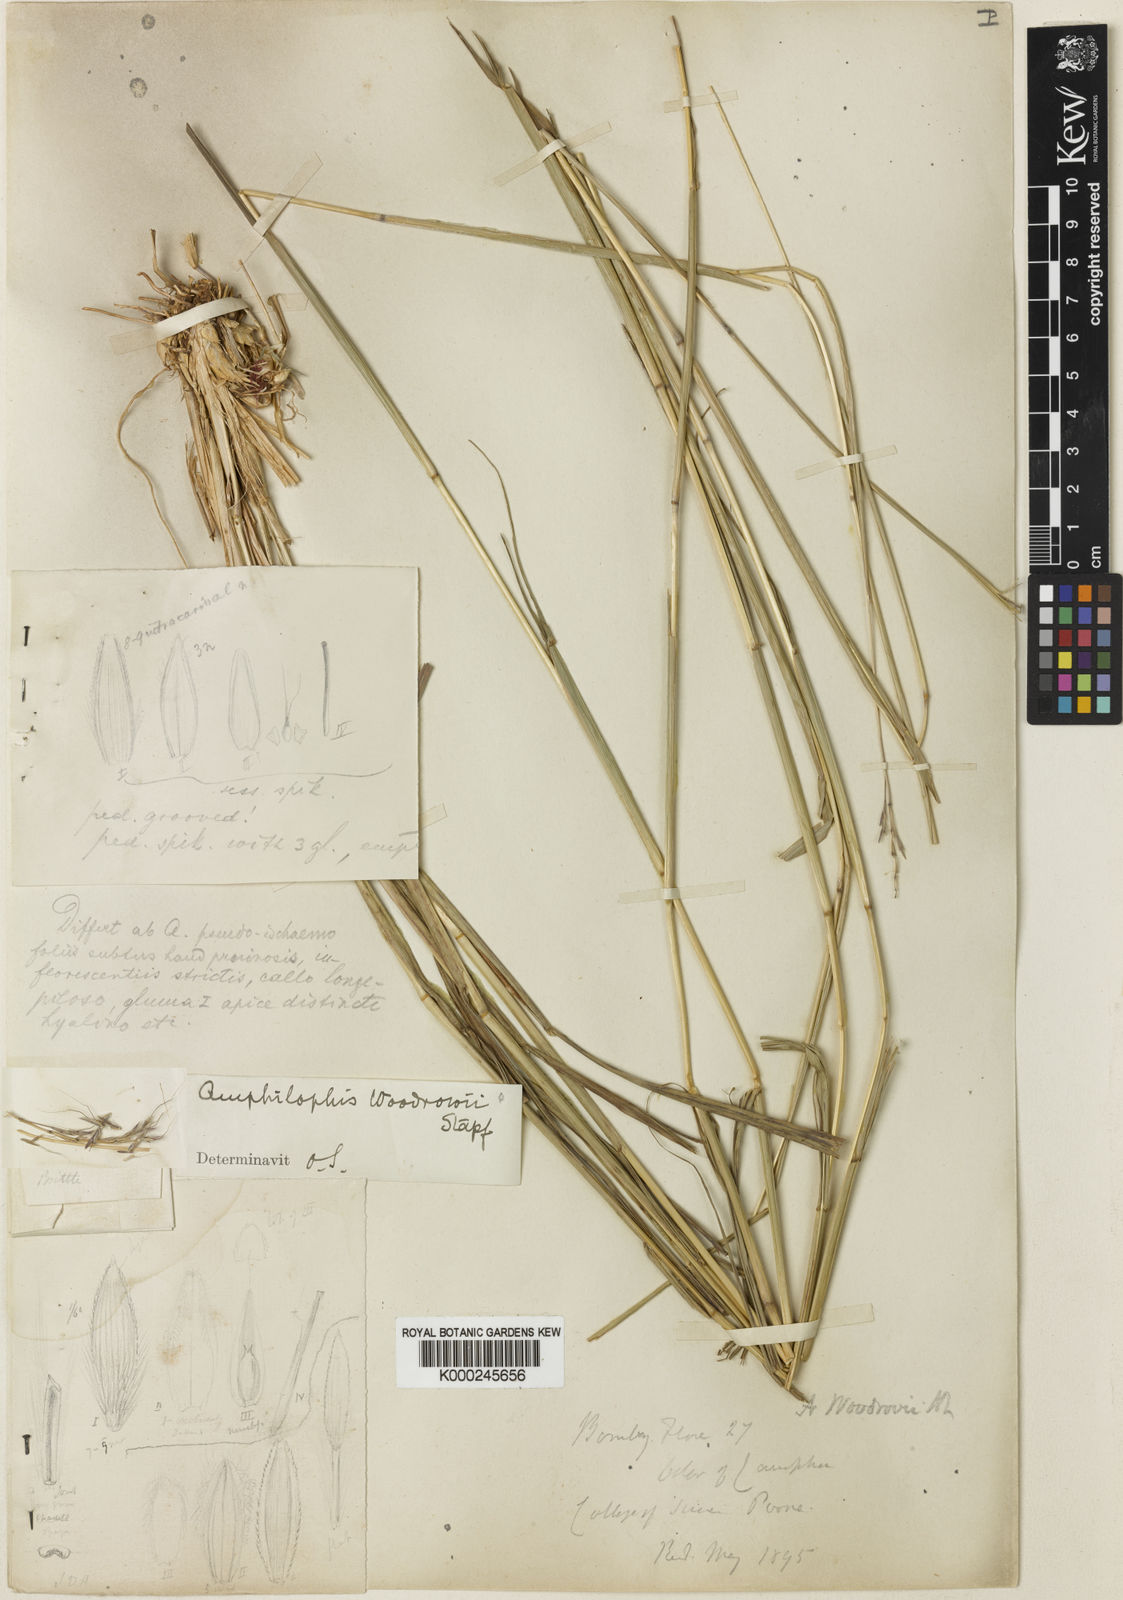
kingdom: Plantae
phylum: Tracheophyta
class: Liliopsida
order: Poales
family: Poaceae
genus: Bothriochloa
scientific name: Bothriochloa woodrovii
